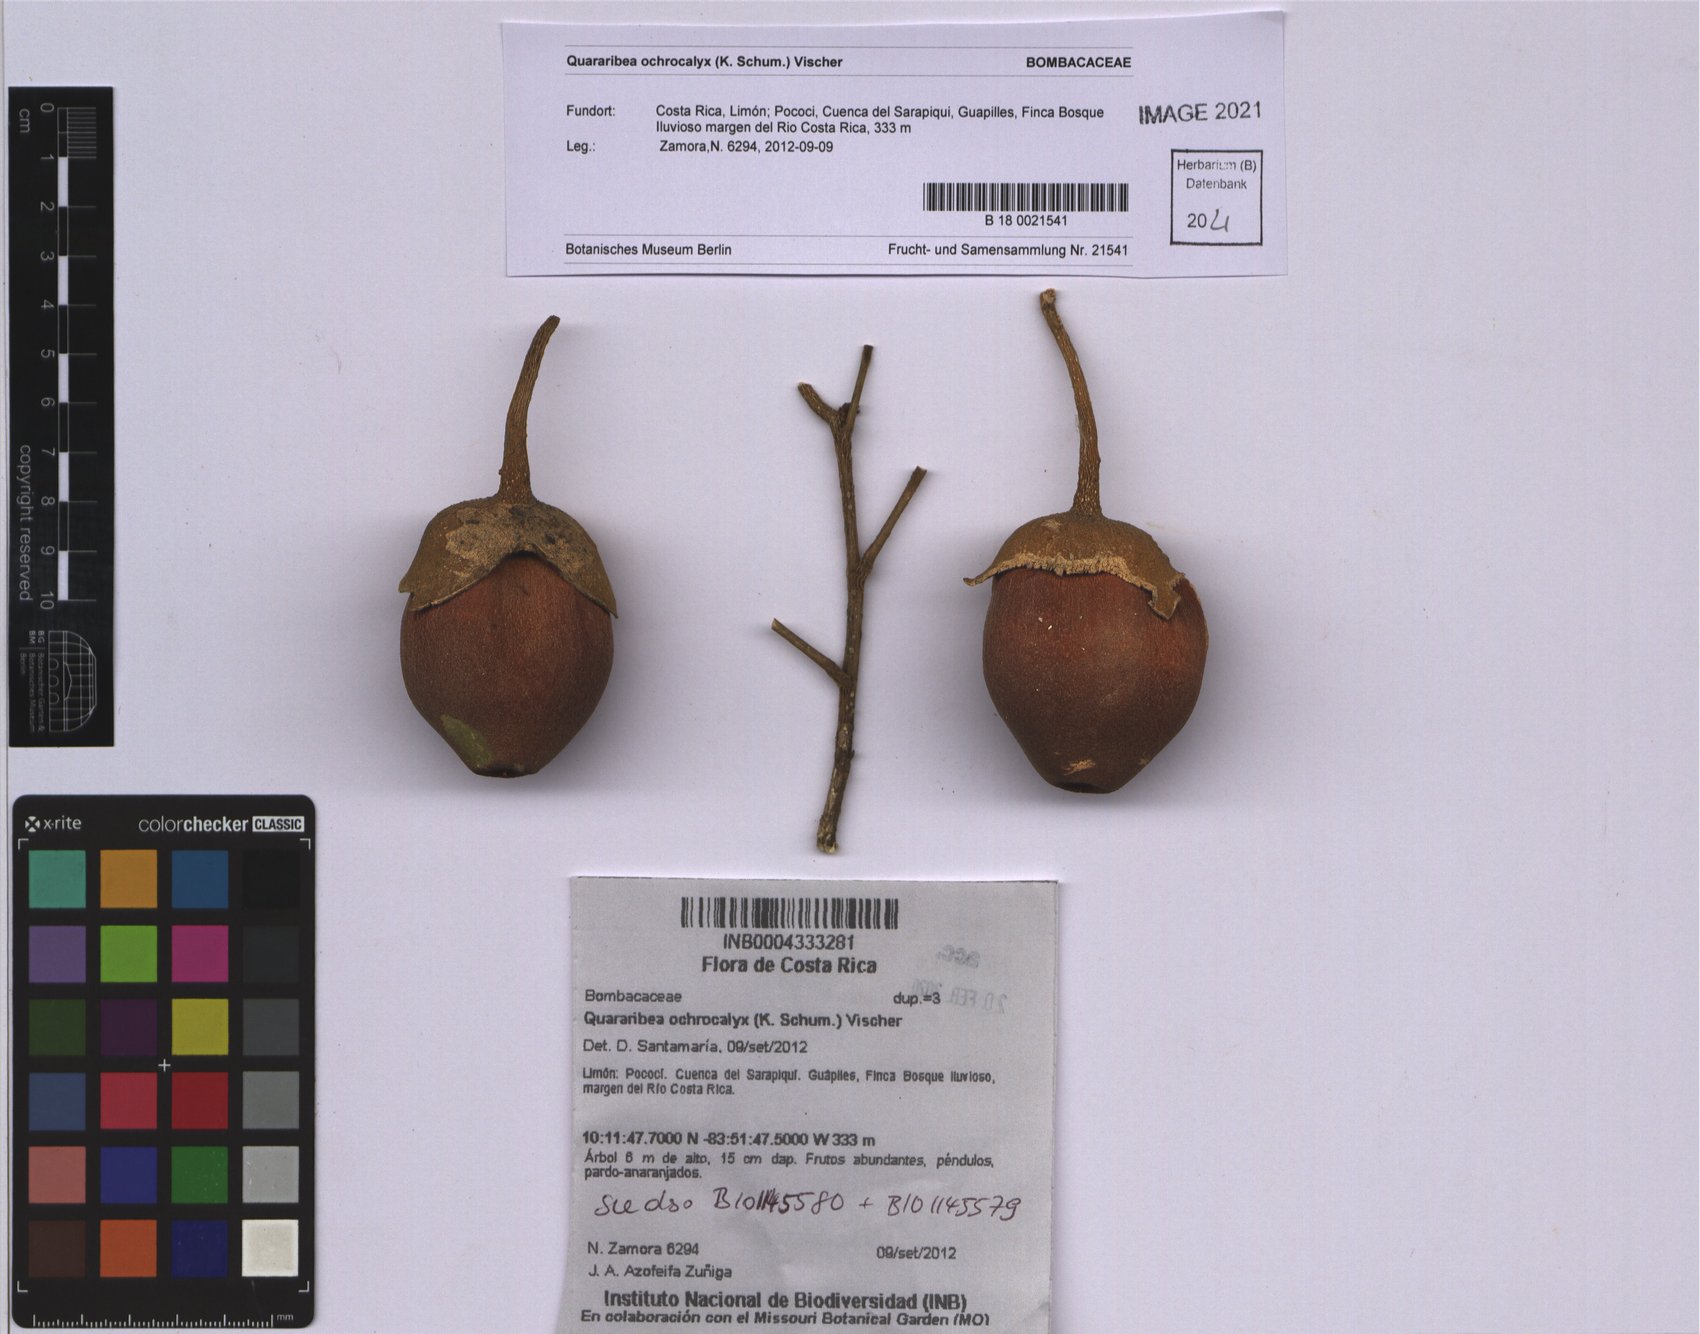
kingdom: Plantae
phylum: Tracheophyta
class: Magnoliopsida
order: Malvales
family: Malvaceae
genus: Matisia
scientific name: Matisia ochrocalyx
